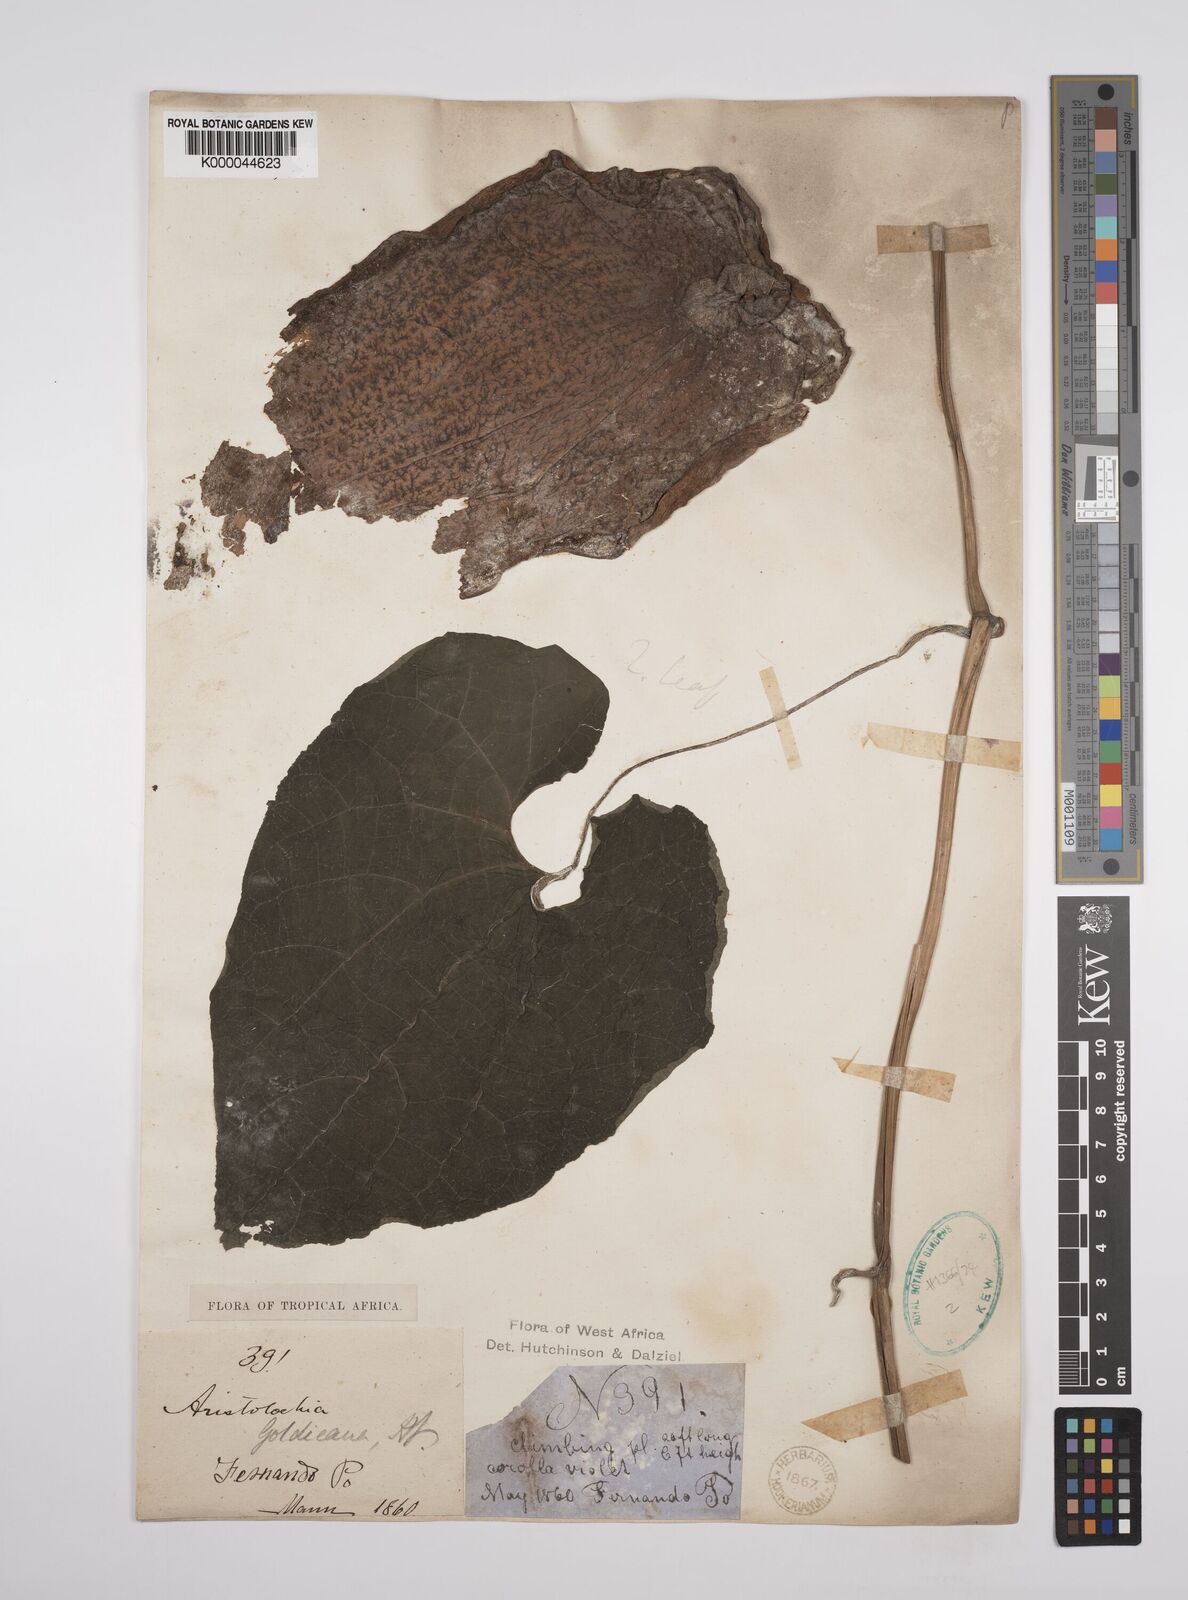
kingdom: Plantae
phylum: Tracheophyta
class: Magnoliopsida
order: Piperales
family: Aristolochiaceae
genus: Aristolochia
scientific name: Aristolochia goldieana
